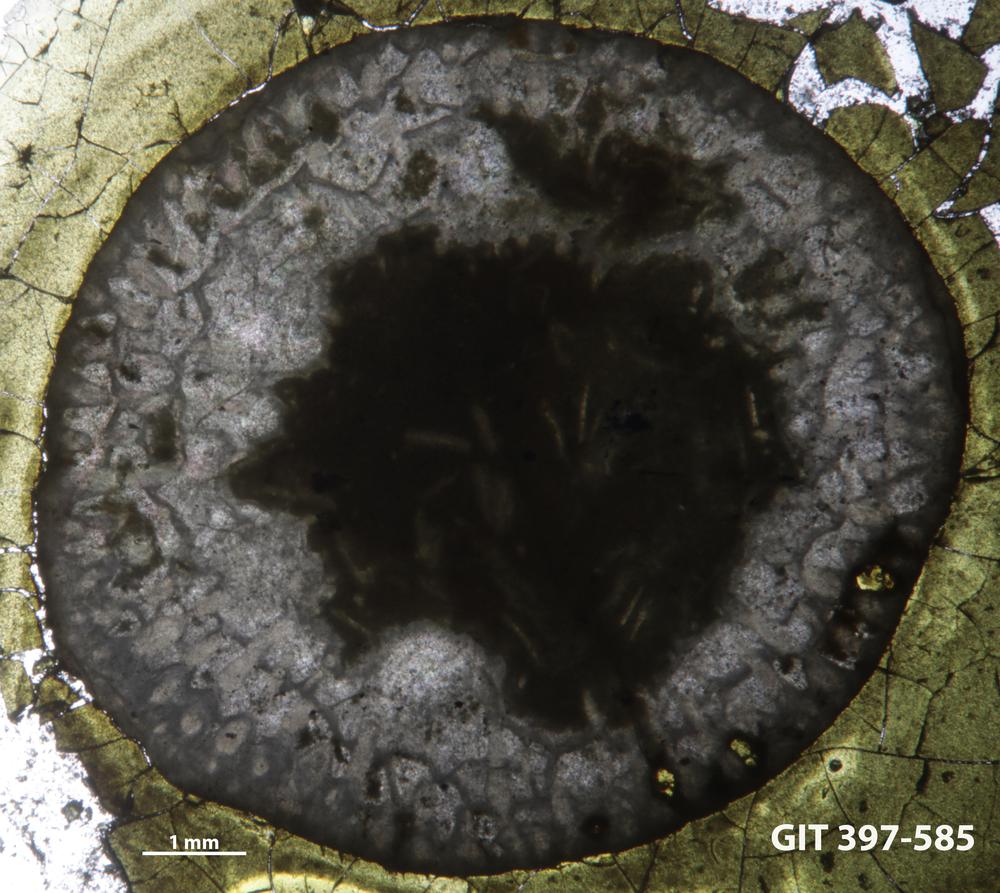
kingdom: Animalia
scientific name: Animalia
